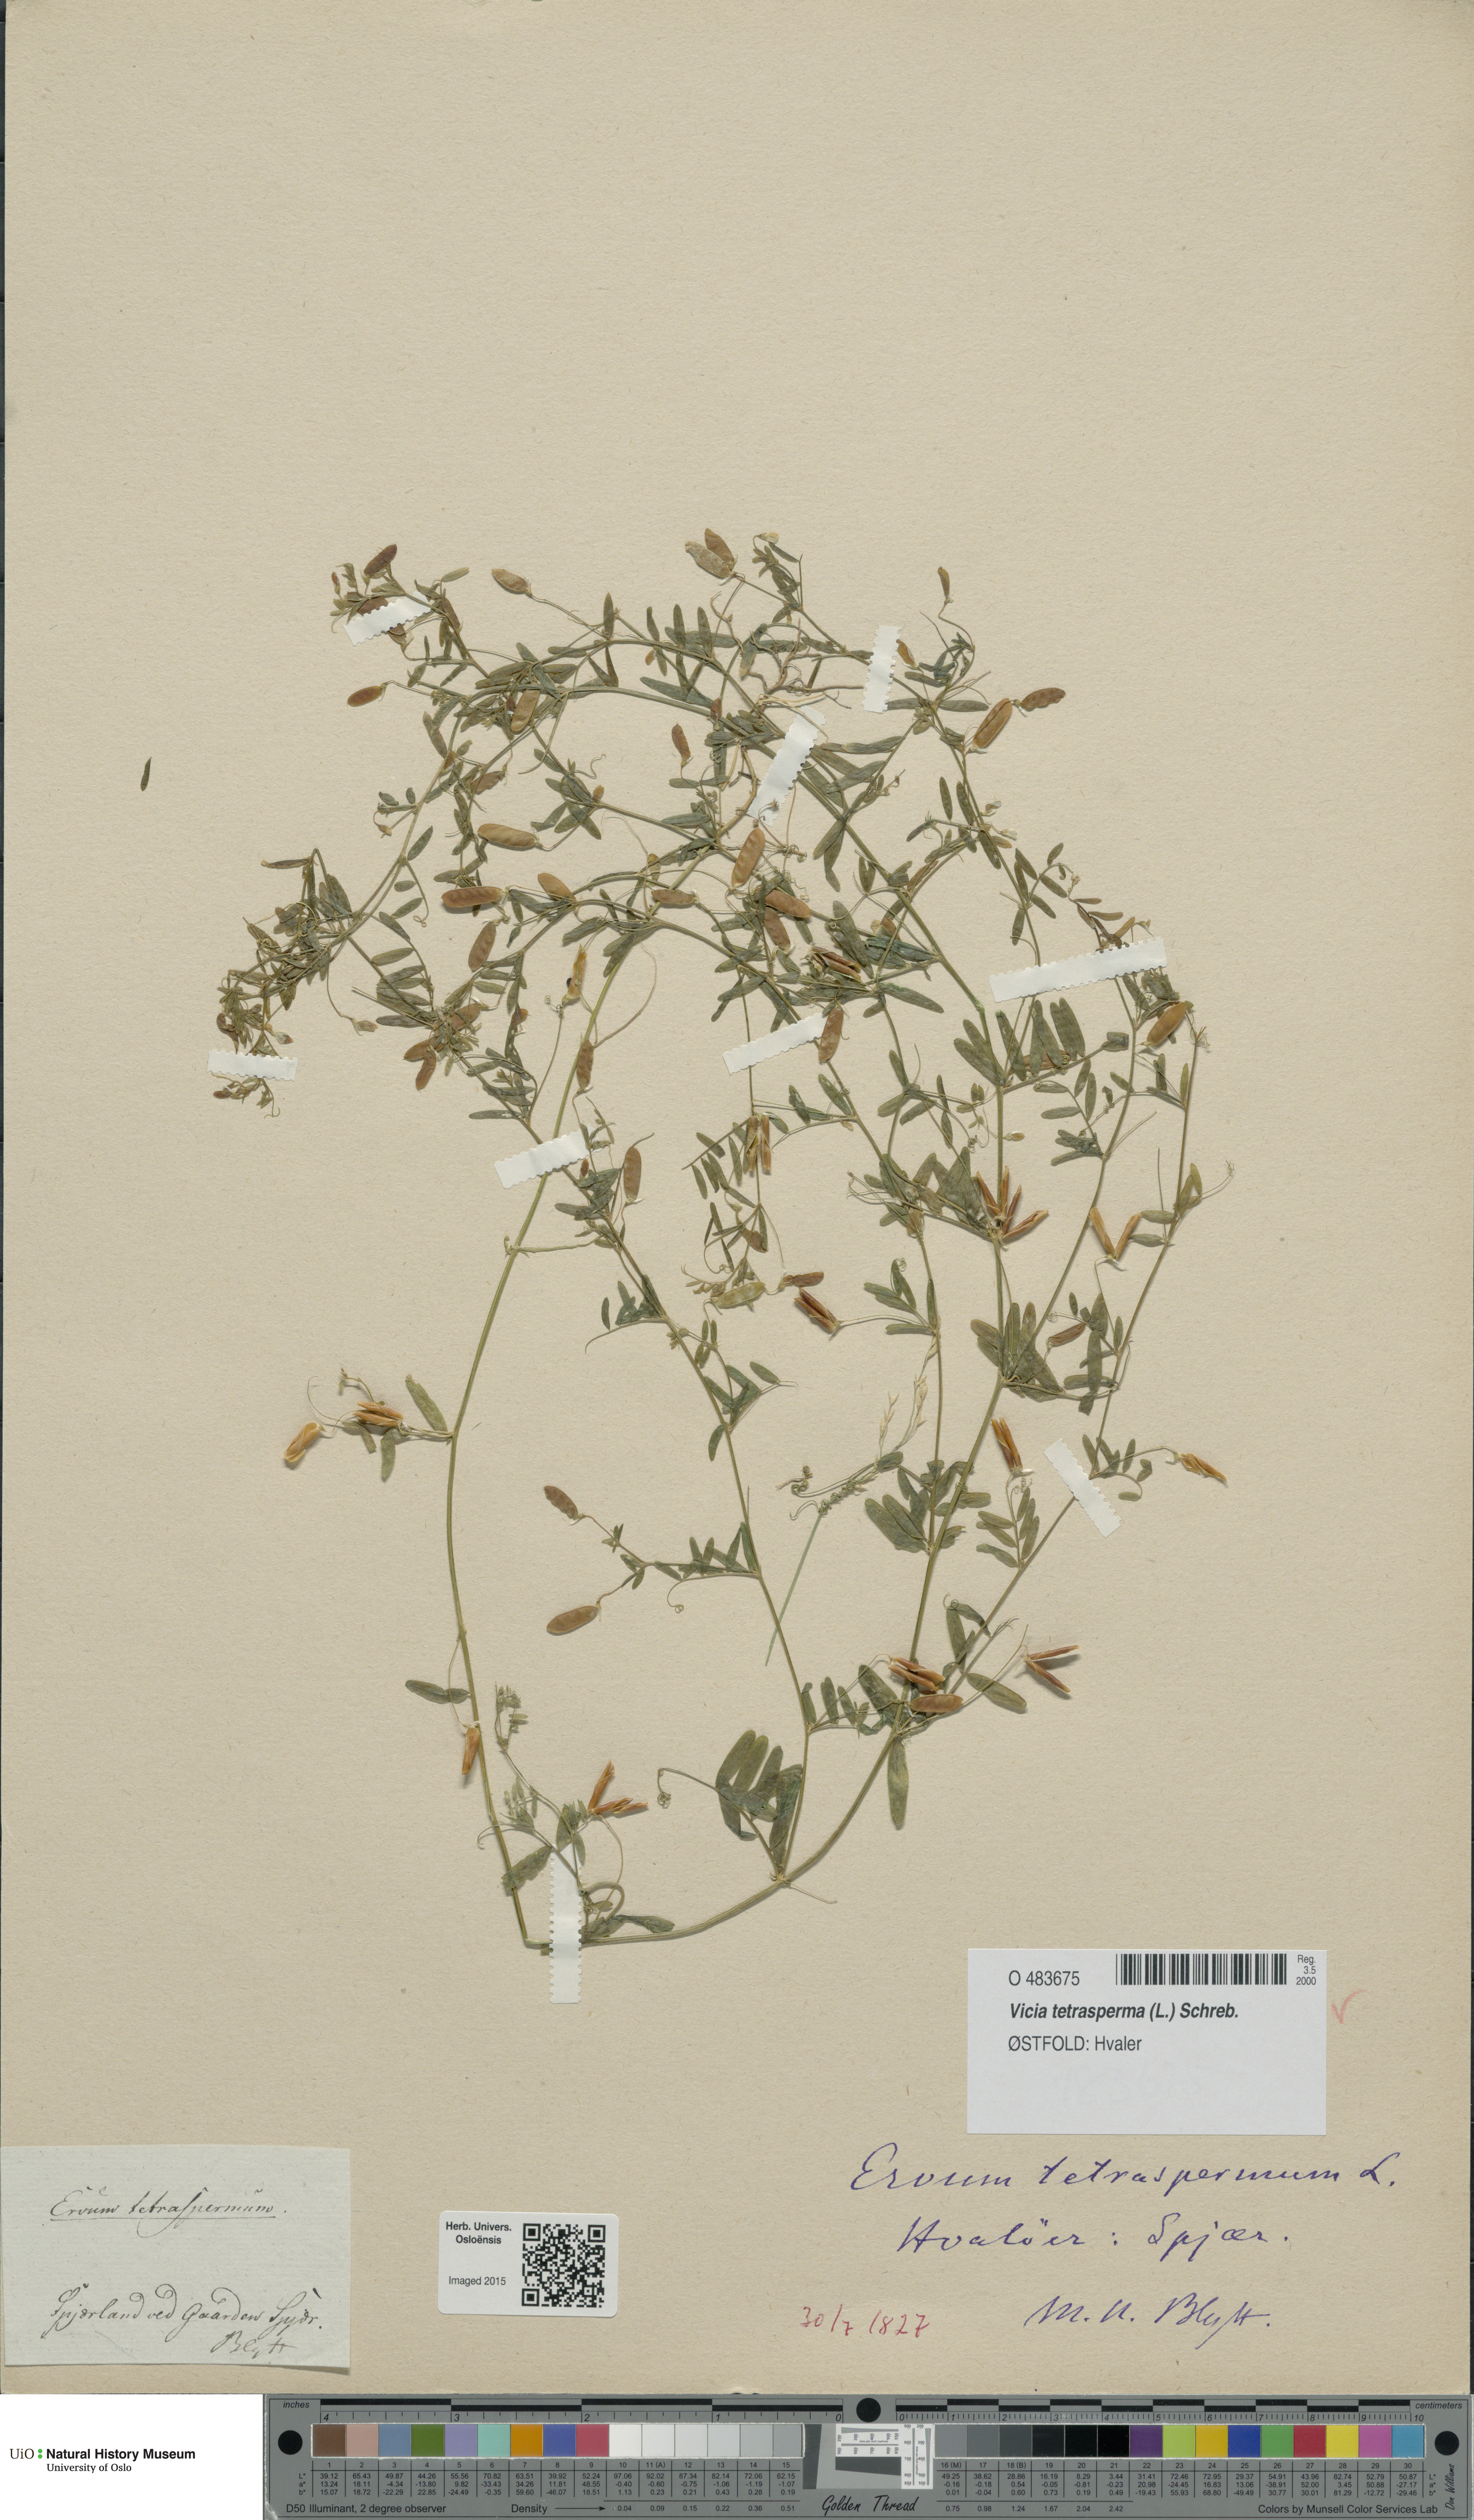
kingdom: Plantae
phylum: Tracheophyta
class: Magnoliopsida
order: Fabales
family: Fabaceae
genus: Vicia
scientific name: Vicia tetrasperma
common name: Smooth tare
